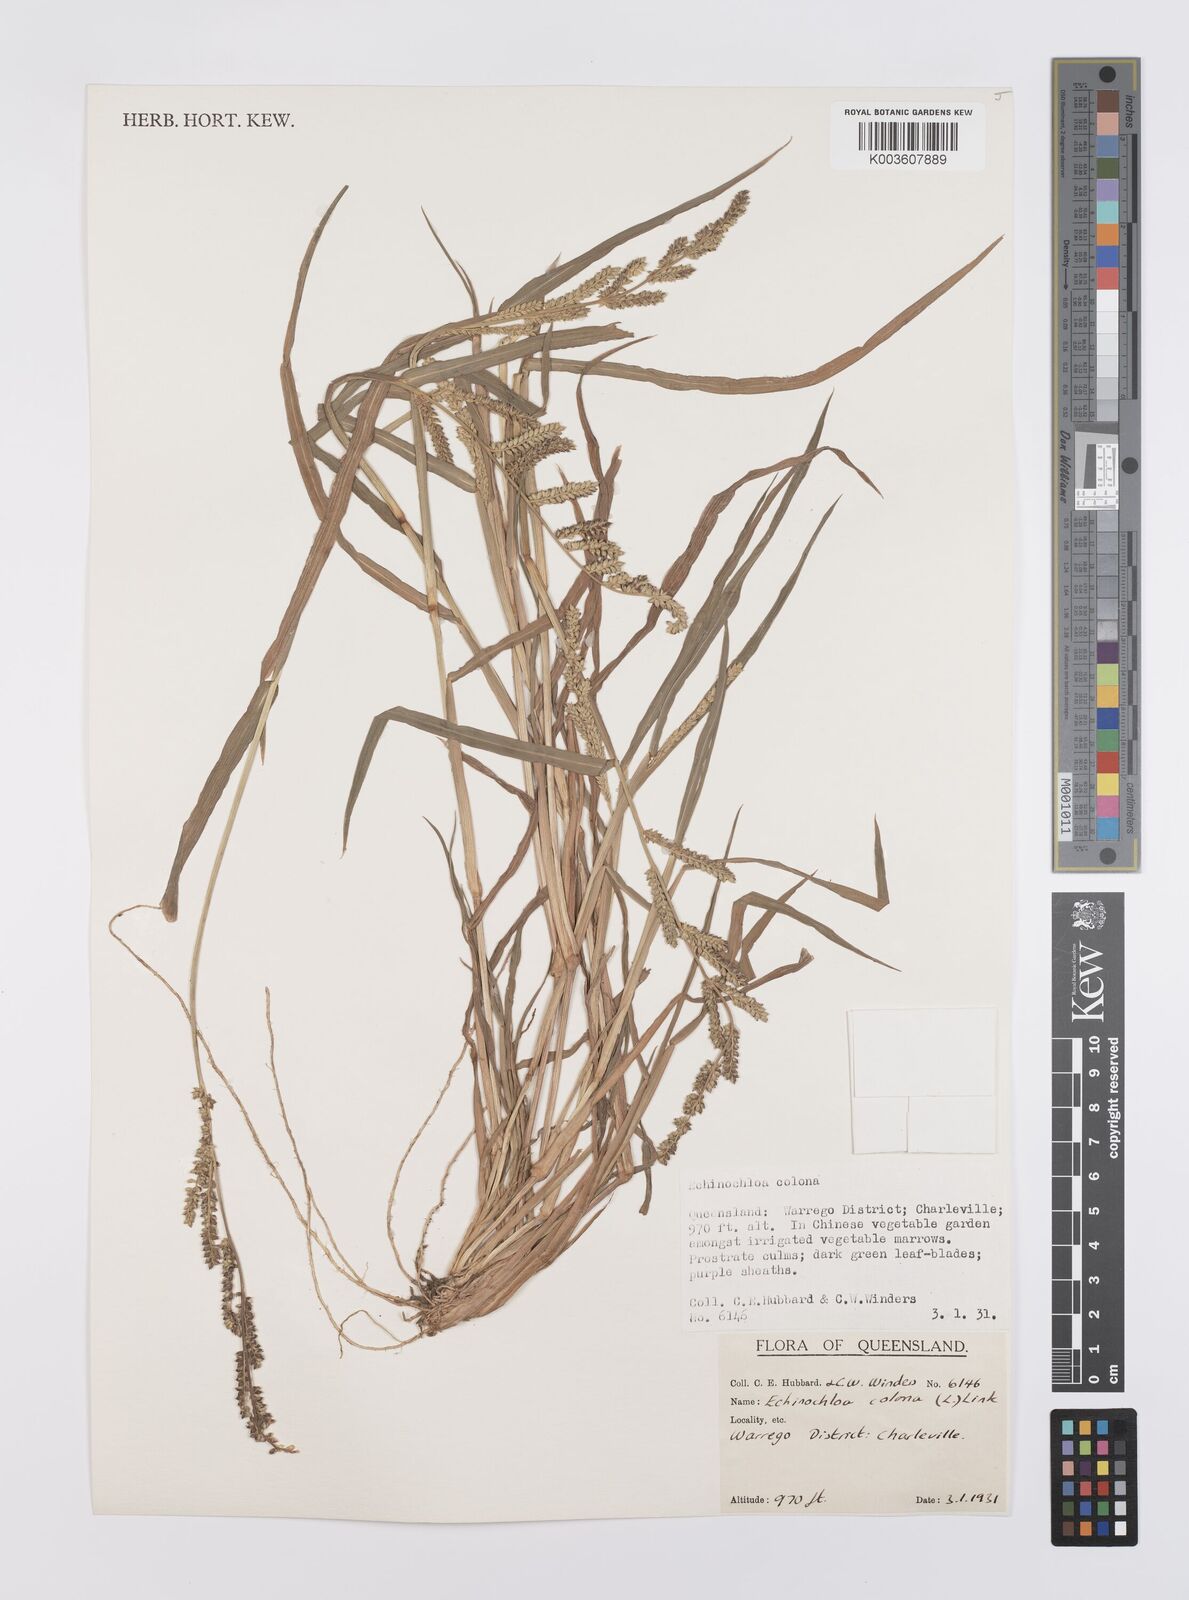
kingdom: Plantae
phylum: Tracheophyta
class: Liliopsida
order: Poales
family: Poaceae
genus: Echinochloa
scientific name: Echinochloa colonum
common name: Jungle rice
